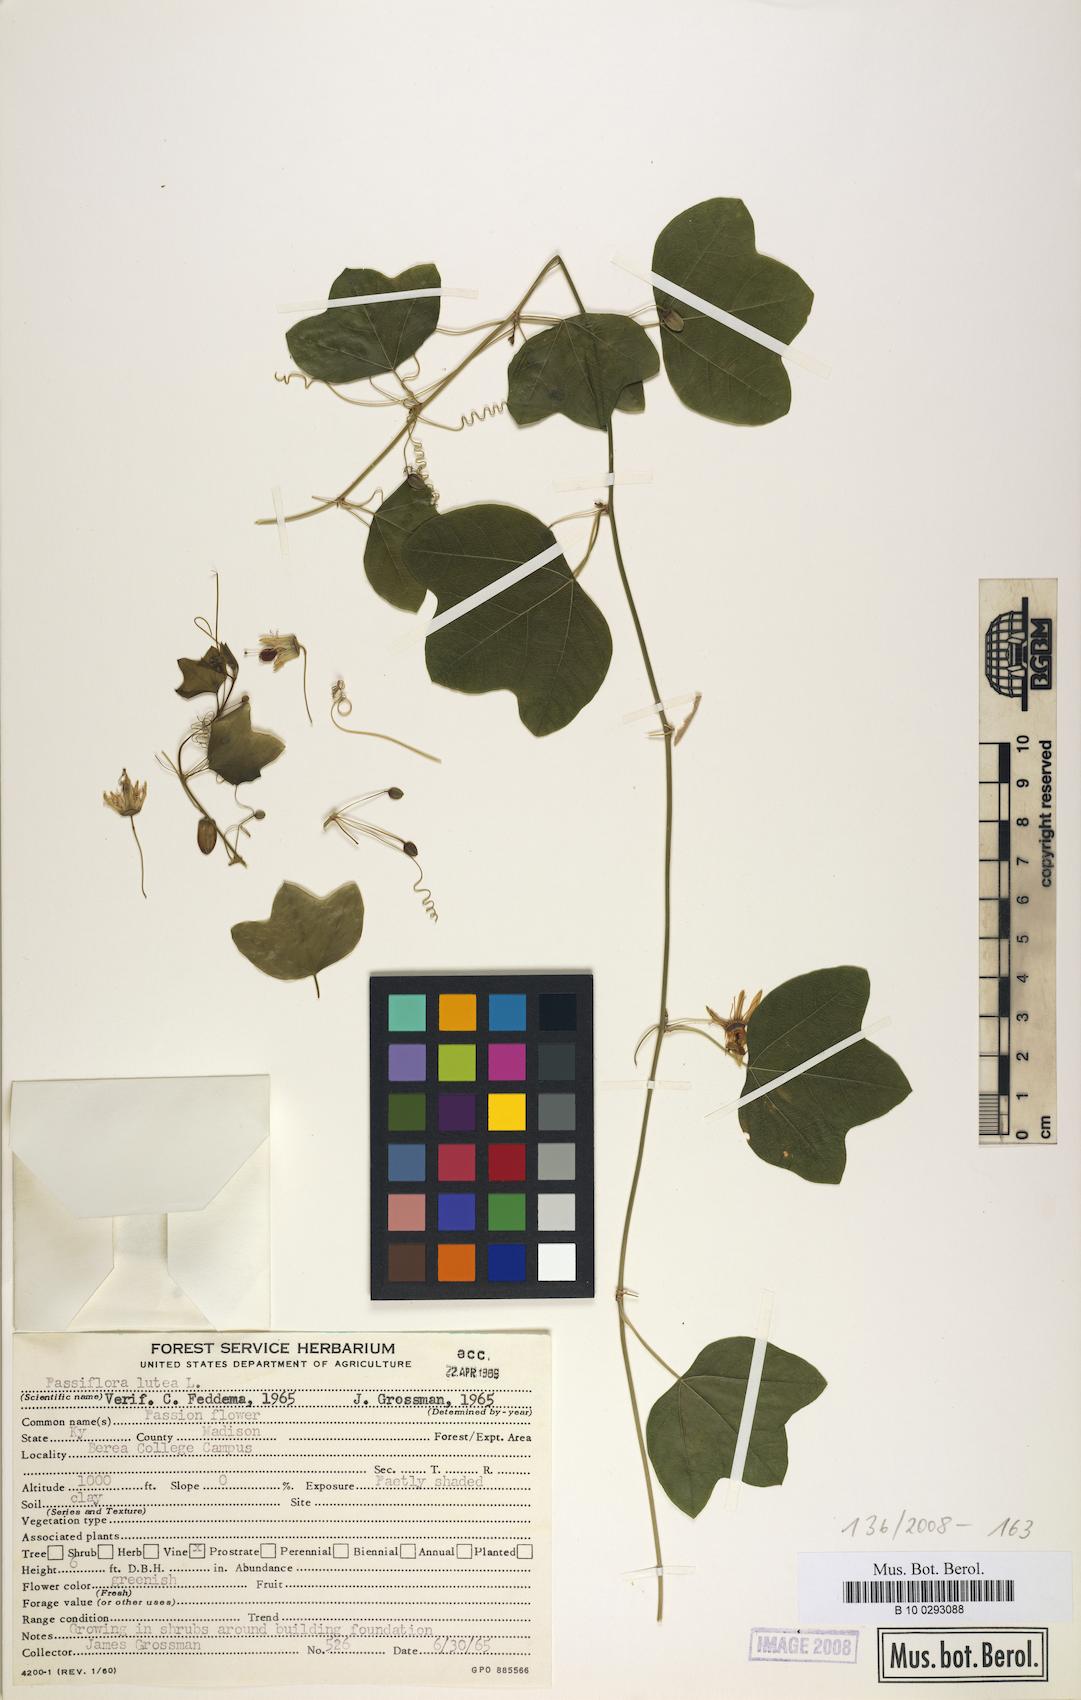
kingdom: Plantae
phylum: Tracheophyta
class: Magnoliopsida
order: Malpighiales
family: Passifloraceae
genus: Passiflora
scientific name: Passiflora lutea
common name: Yellow passionflower
